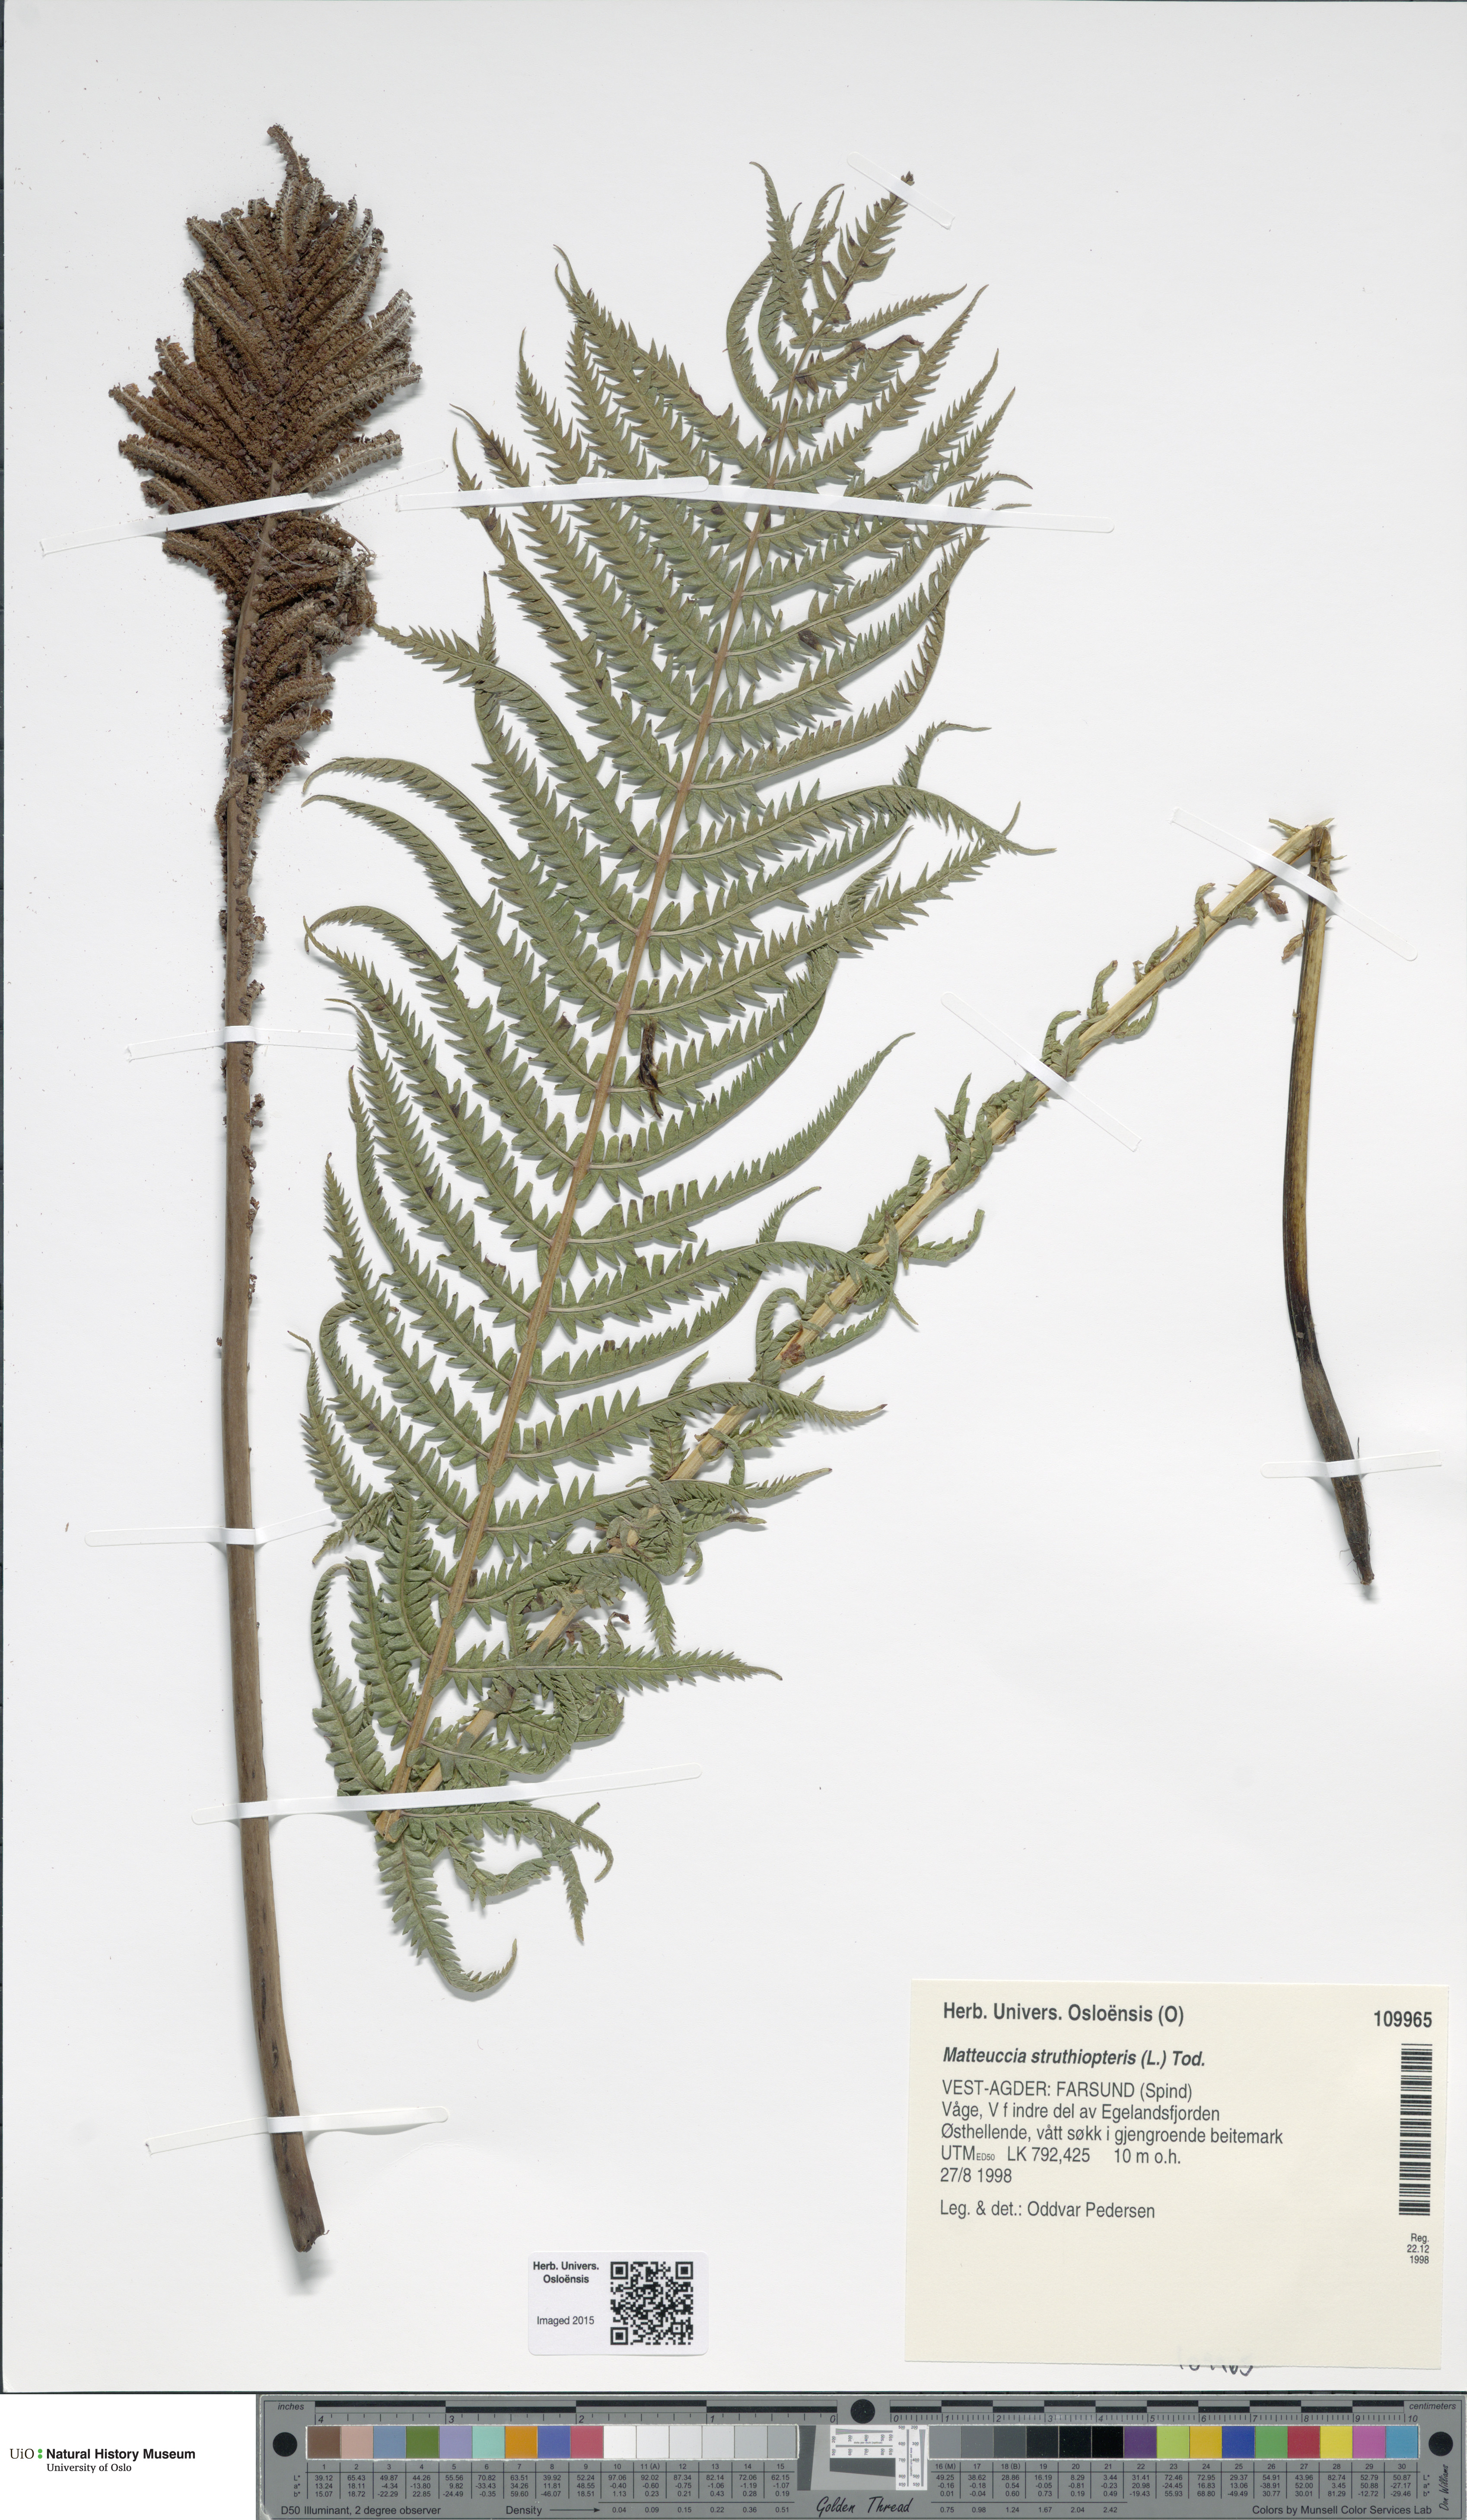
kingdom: Plantae
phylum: Tracheophyta
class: Polypodiopsida
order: Polypodiales
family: Onocleaceae
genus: Matteuccia
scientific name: Matteuccia struthiopteris
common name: Ostrich fern
